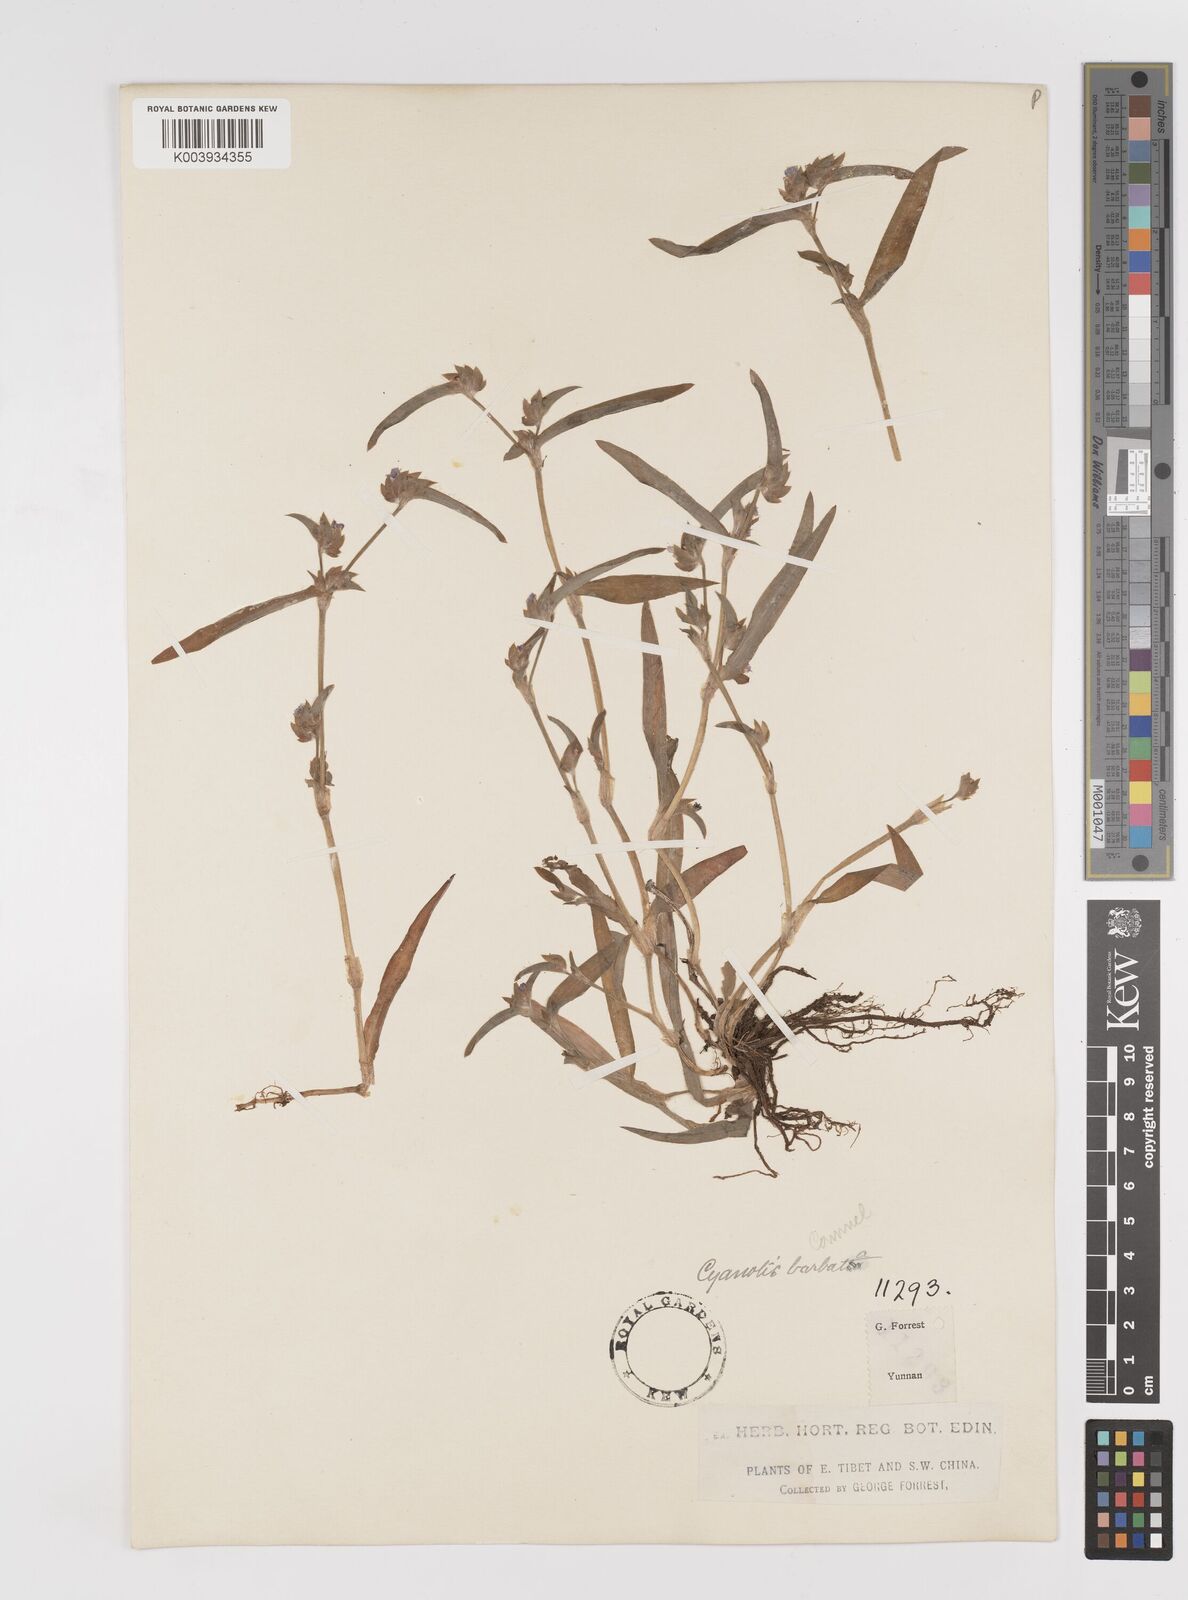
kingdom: Plantae
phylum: Tracheophyta
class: Liliopsida
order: Commelinales
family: Commelinaceae
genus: Cyanotis
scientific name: Cyanotis arachnoidea
